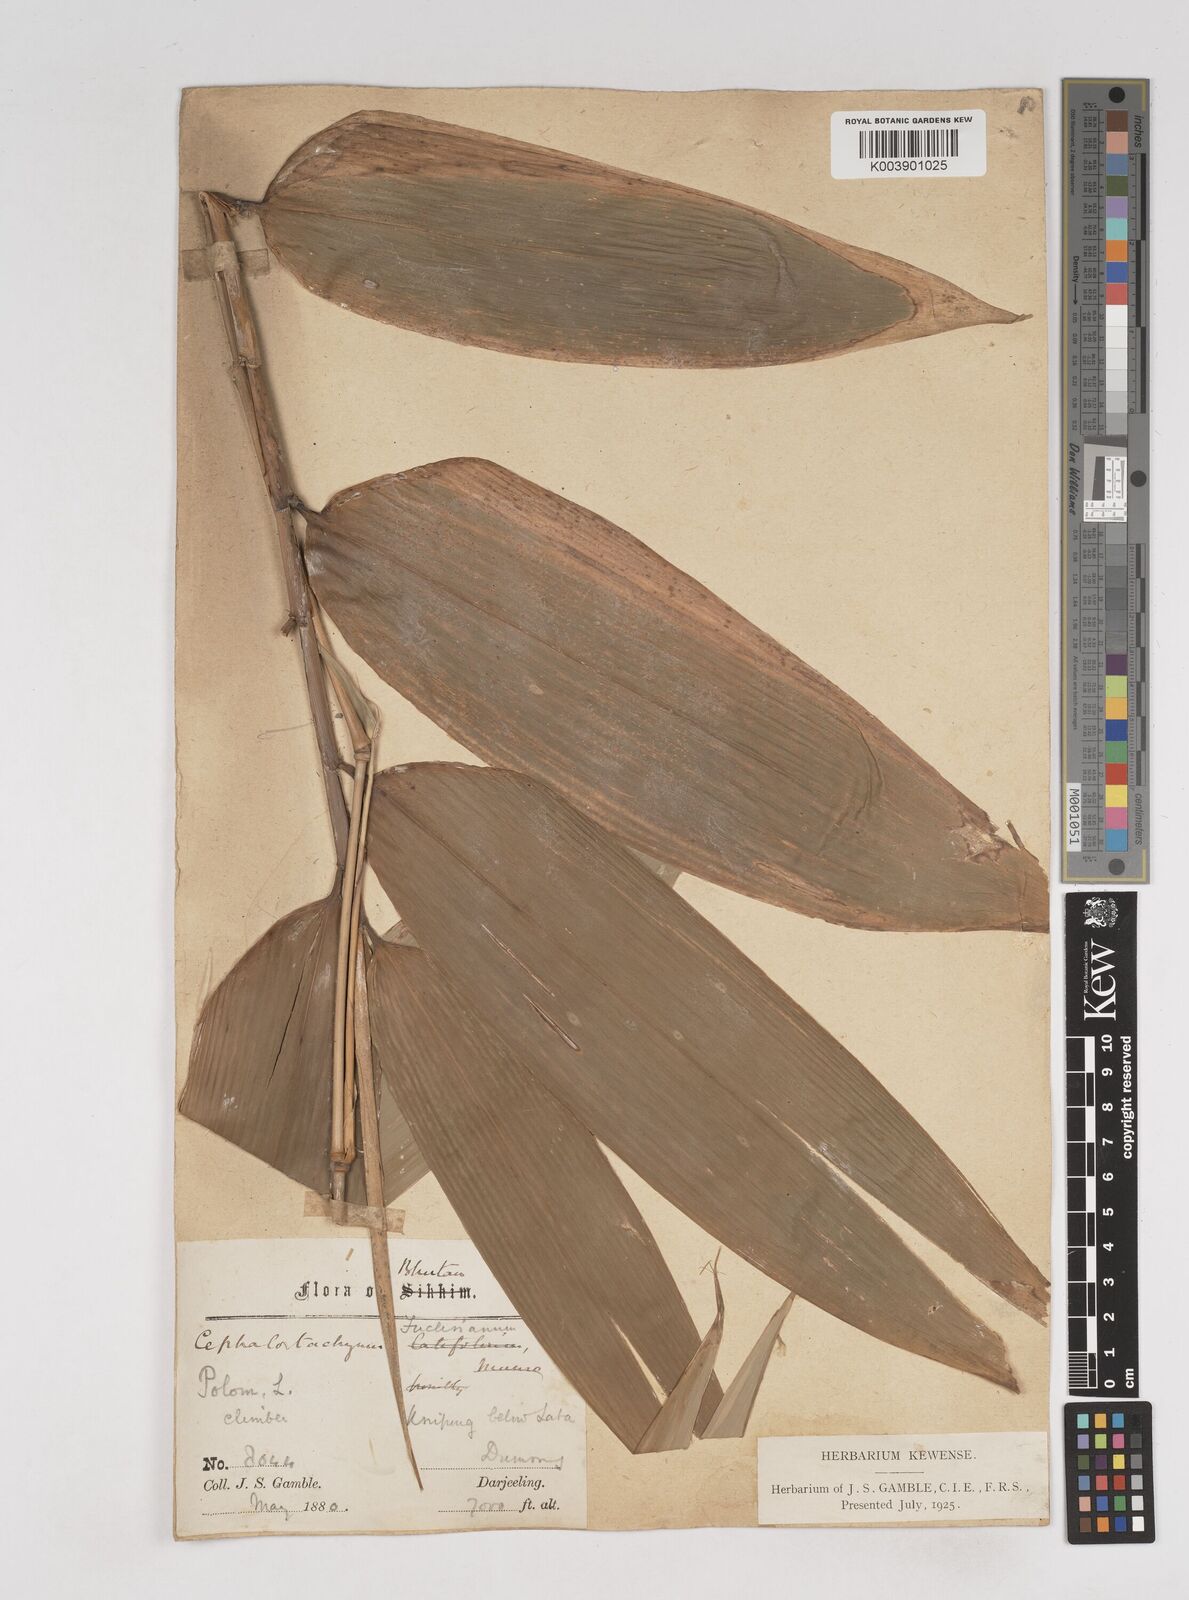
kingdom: Plantae
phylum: Tracheophyta
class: Liliopsida
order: Poales
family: Poaceae
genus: Cephalostachyum
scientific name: Cephalostachyum
